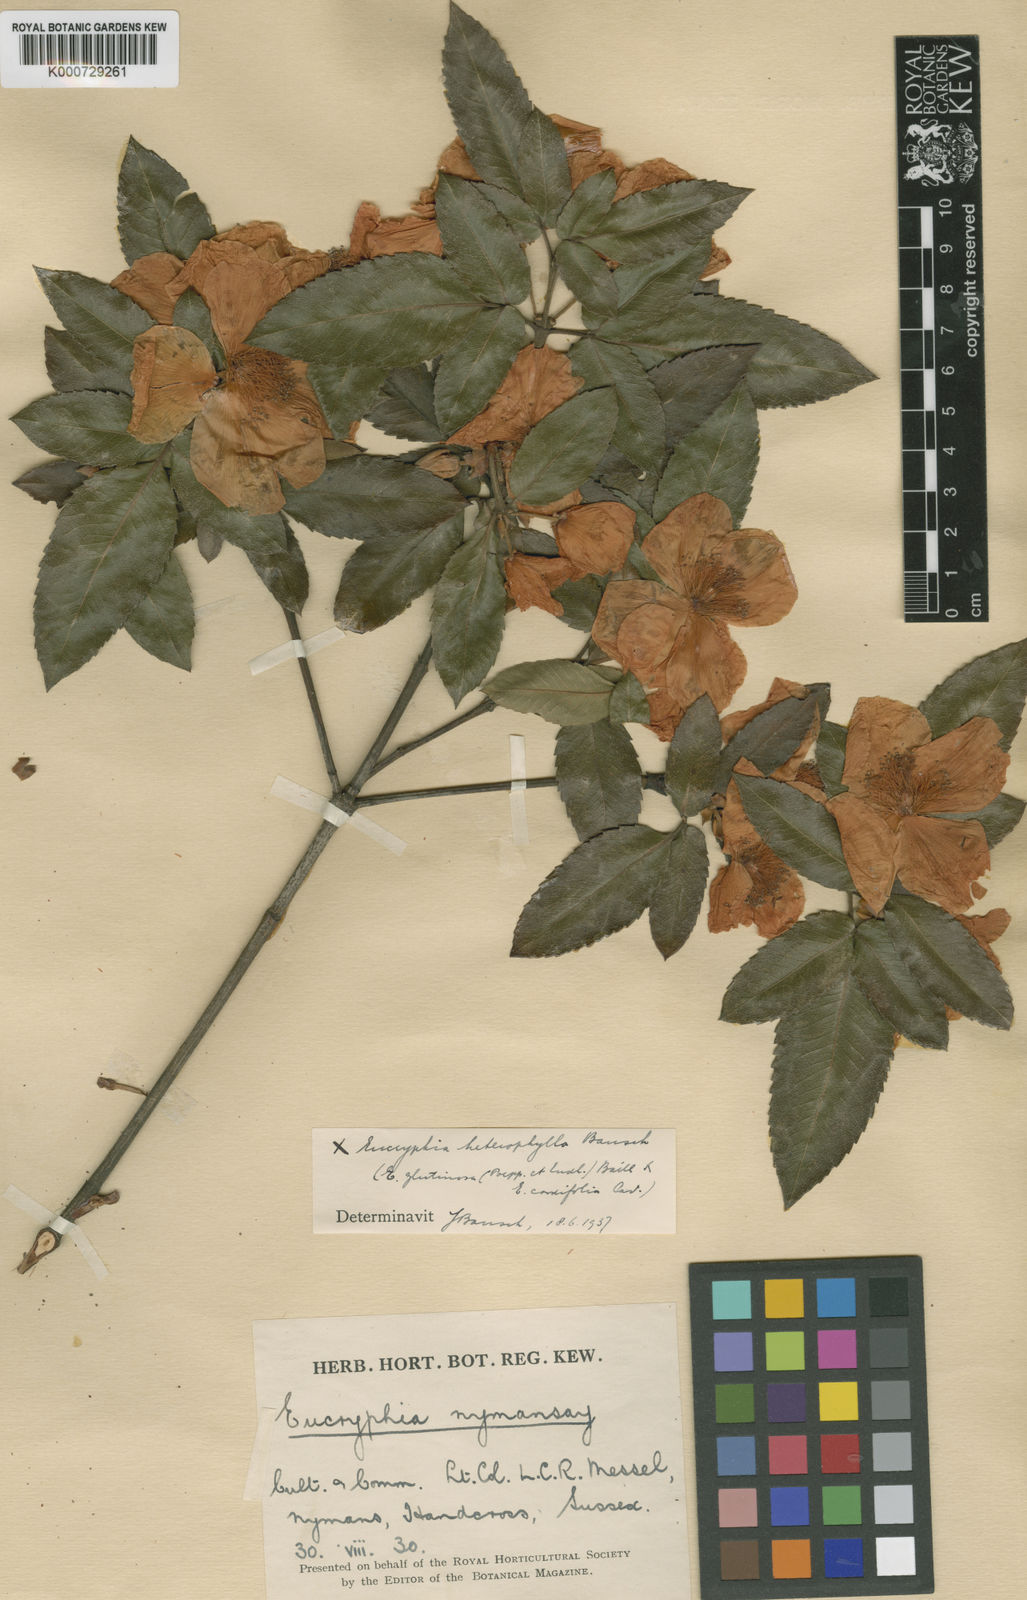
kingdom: Plantae
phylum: Tracheophyta
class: Magnoliopsida
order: Oxalidales
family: Cunoniaceae
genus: Eucryphia
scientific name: Eucryphia nymansensis
